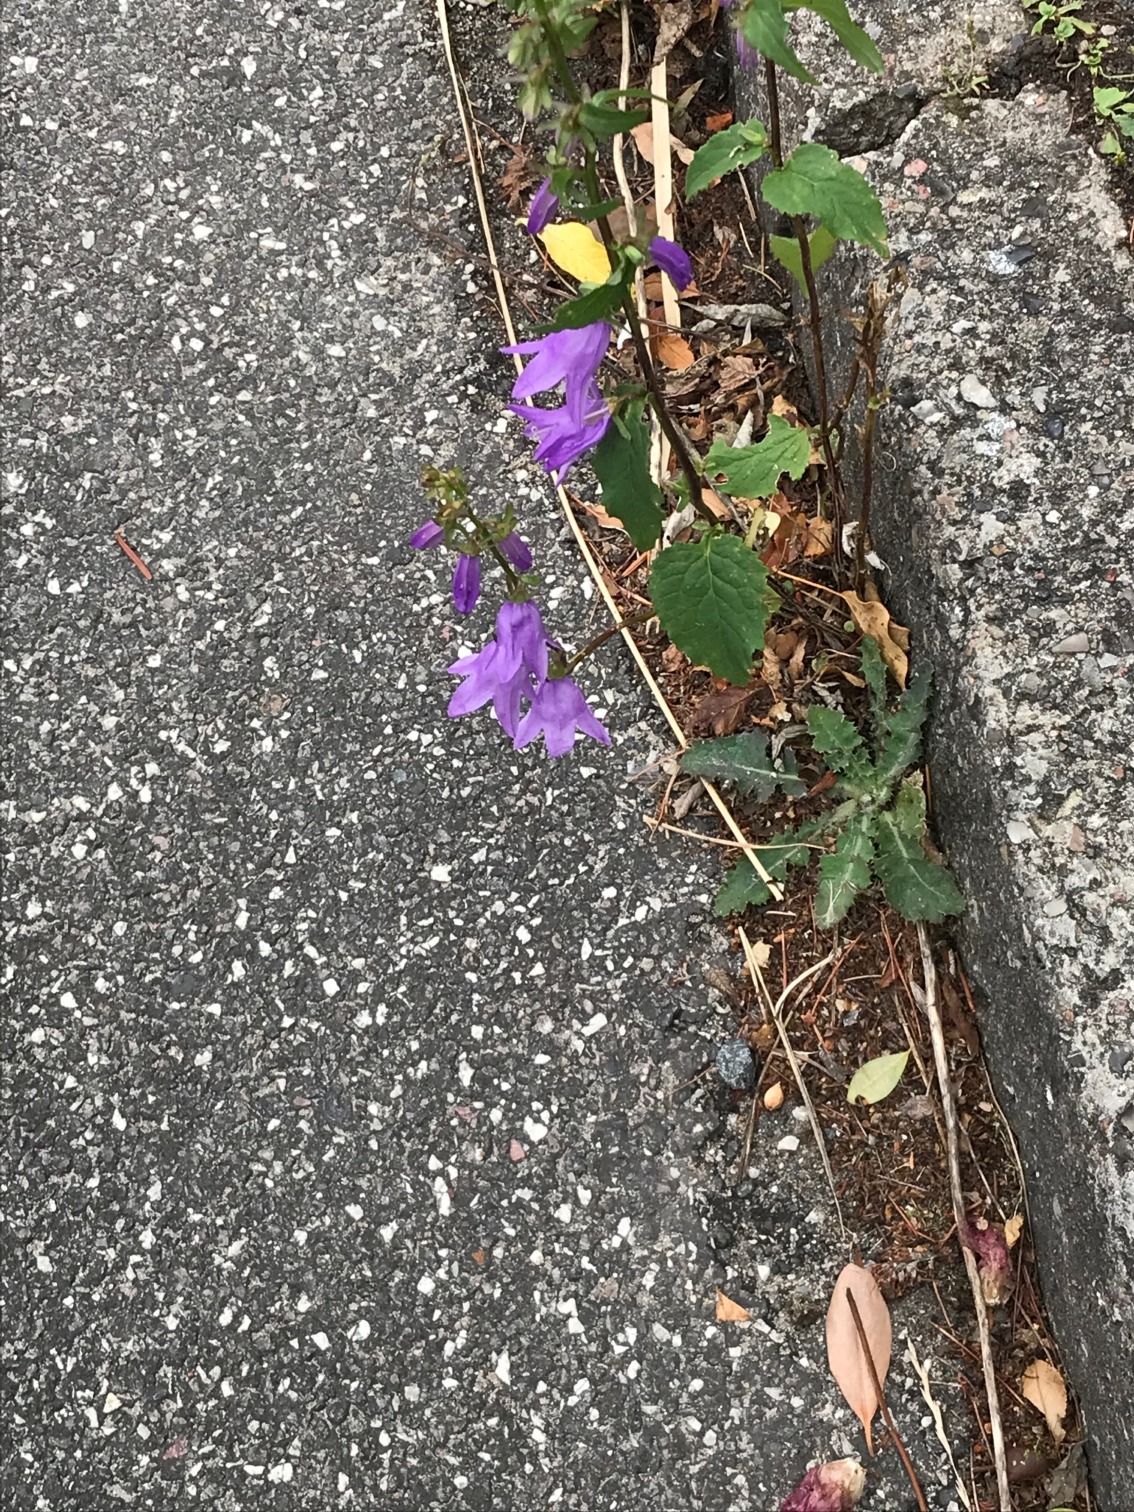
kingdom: Plantae
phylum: Tracheophyta
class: Magnoliopsida
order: Asterales
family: Campanulaceae
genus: Campanula
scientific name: Campanula trachelium
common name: Nælde-klokke
